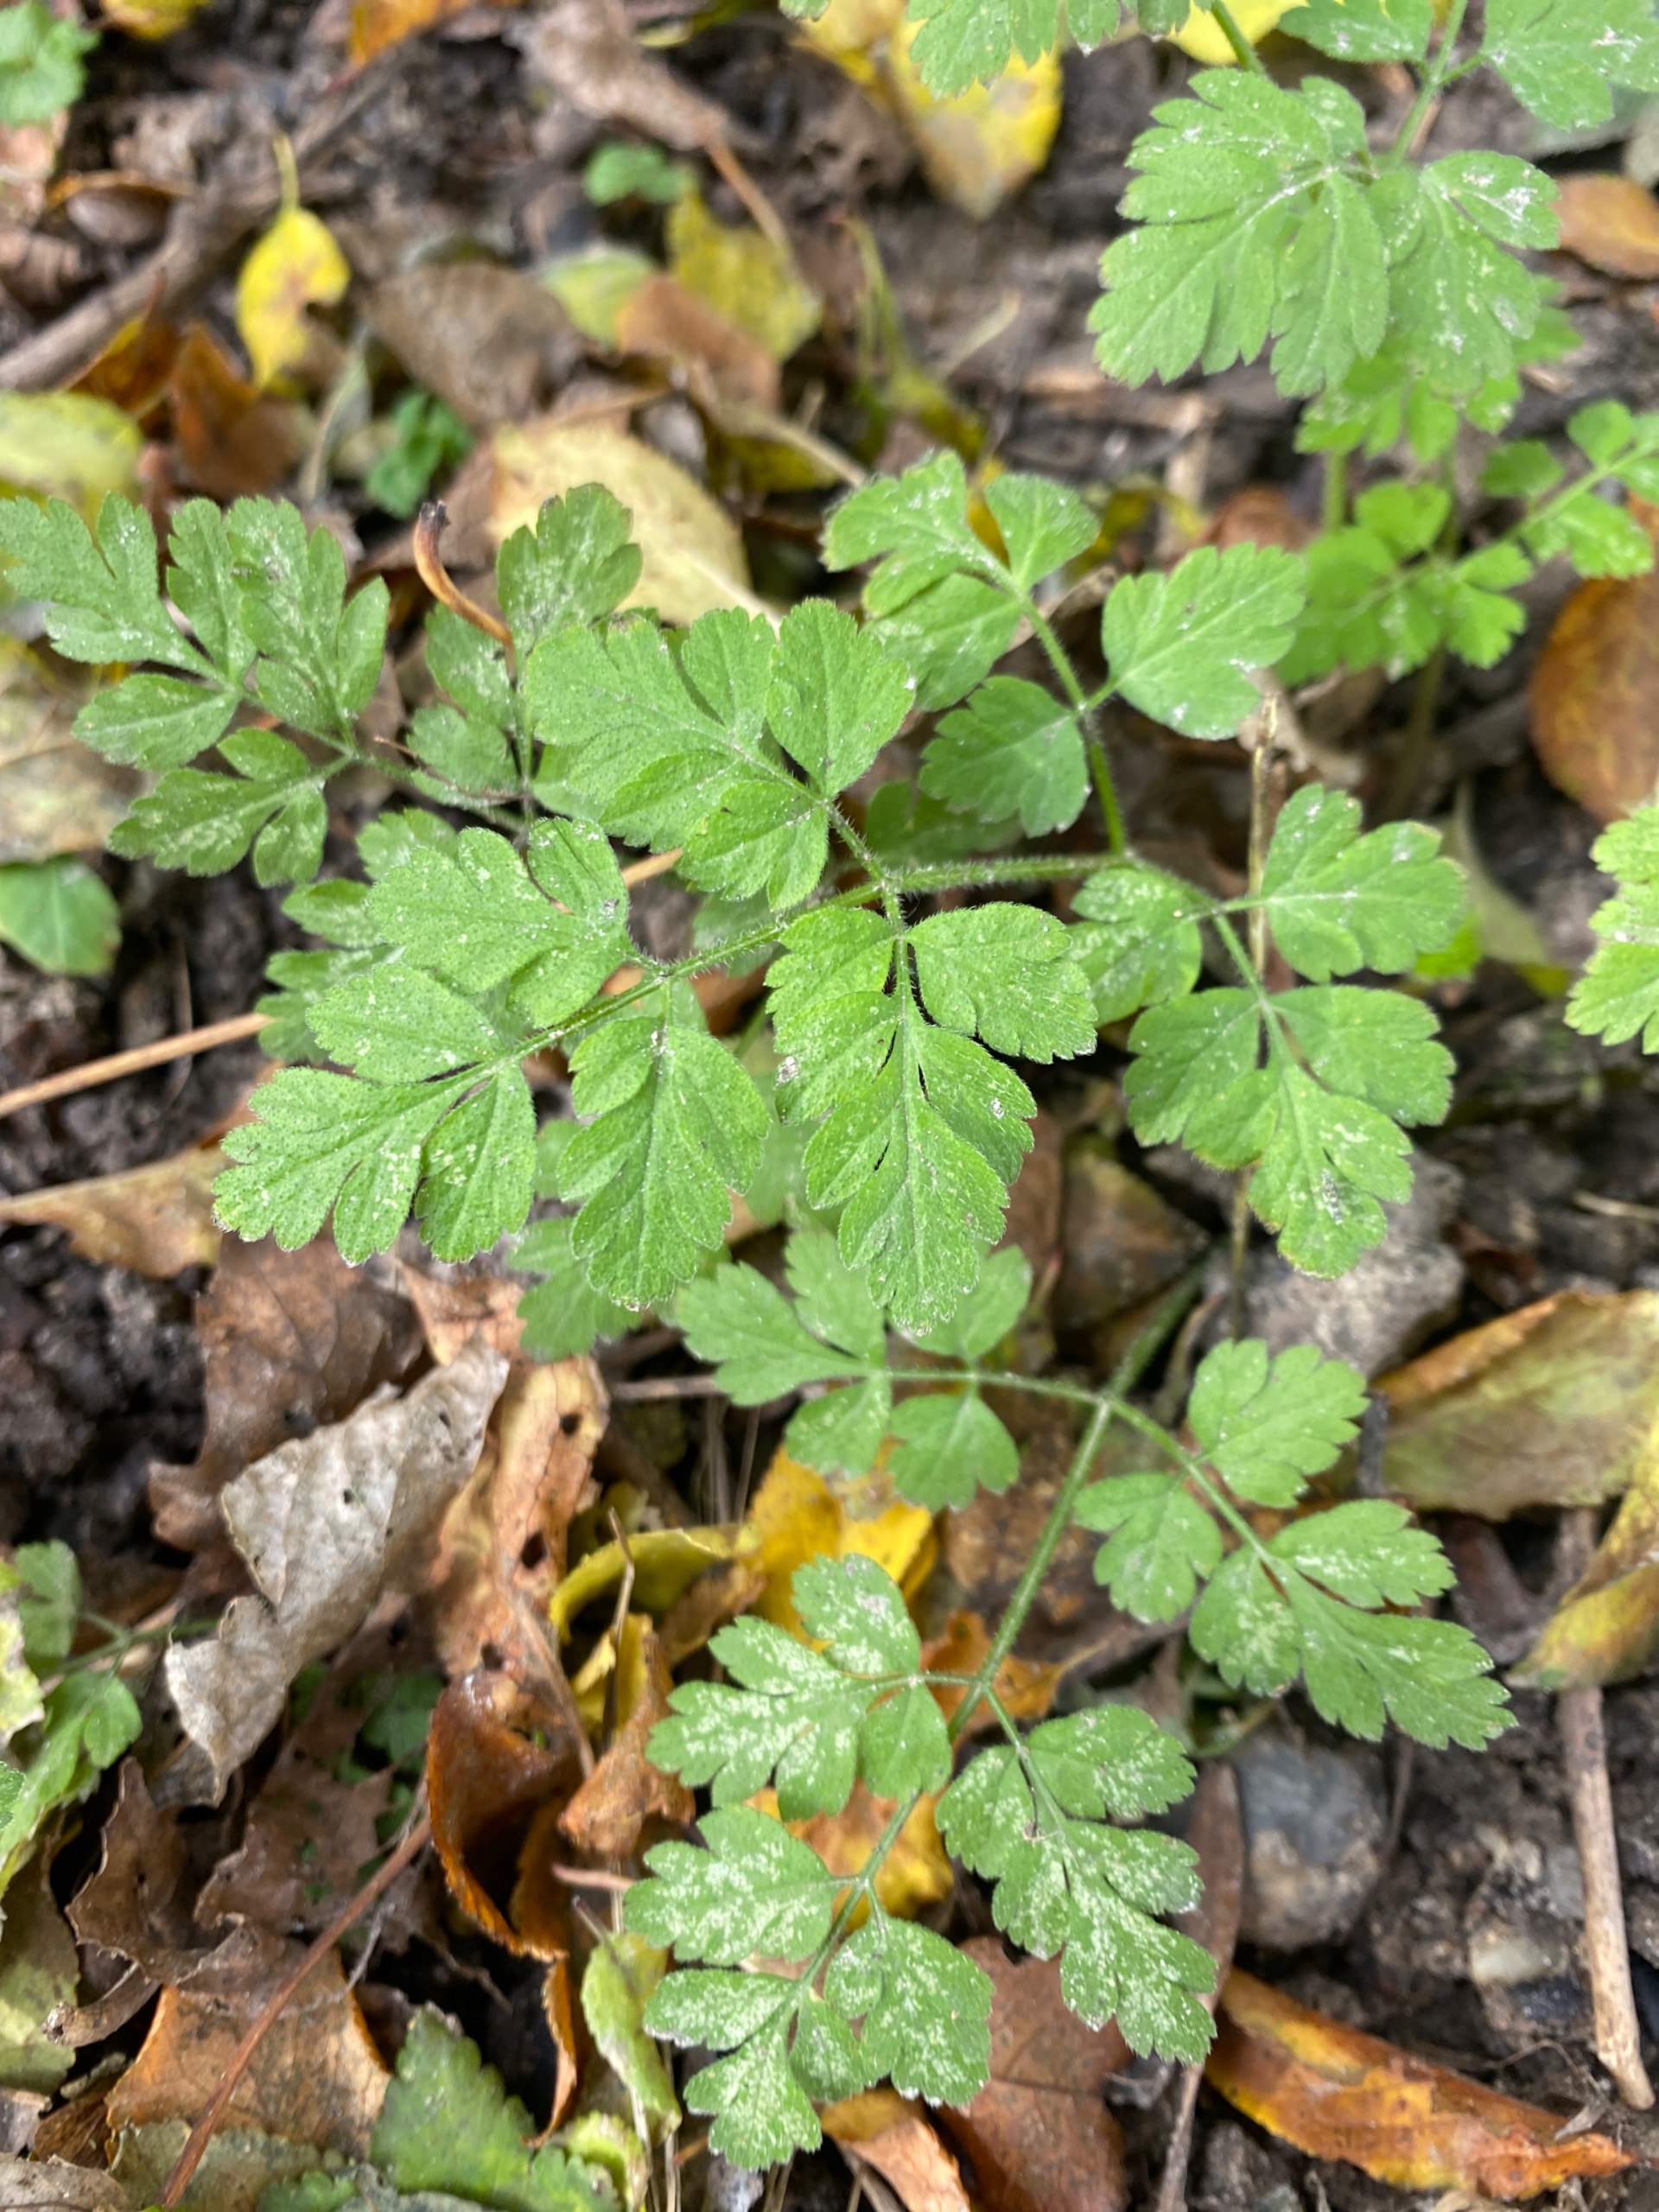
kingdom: Plantae
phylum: Tracheophyta
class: Magnoliopsida
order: Apiales
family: Apiaceae
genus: Chaerophyllum
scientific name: Chaerophyllum temulum
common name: Almindelig hulsvøb
